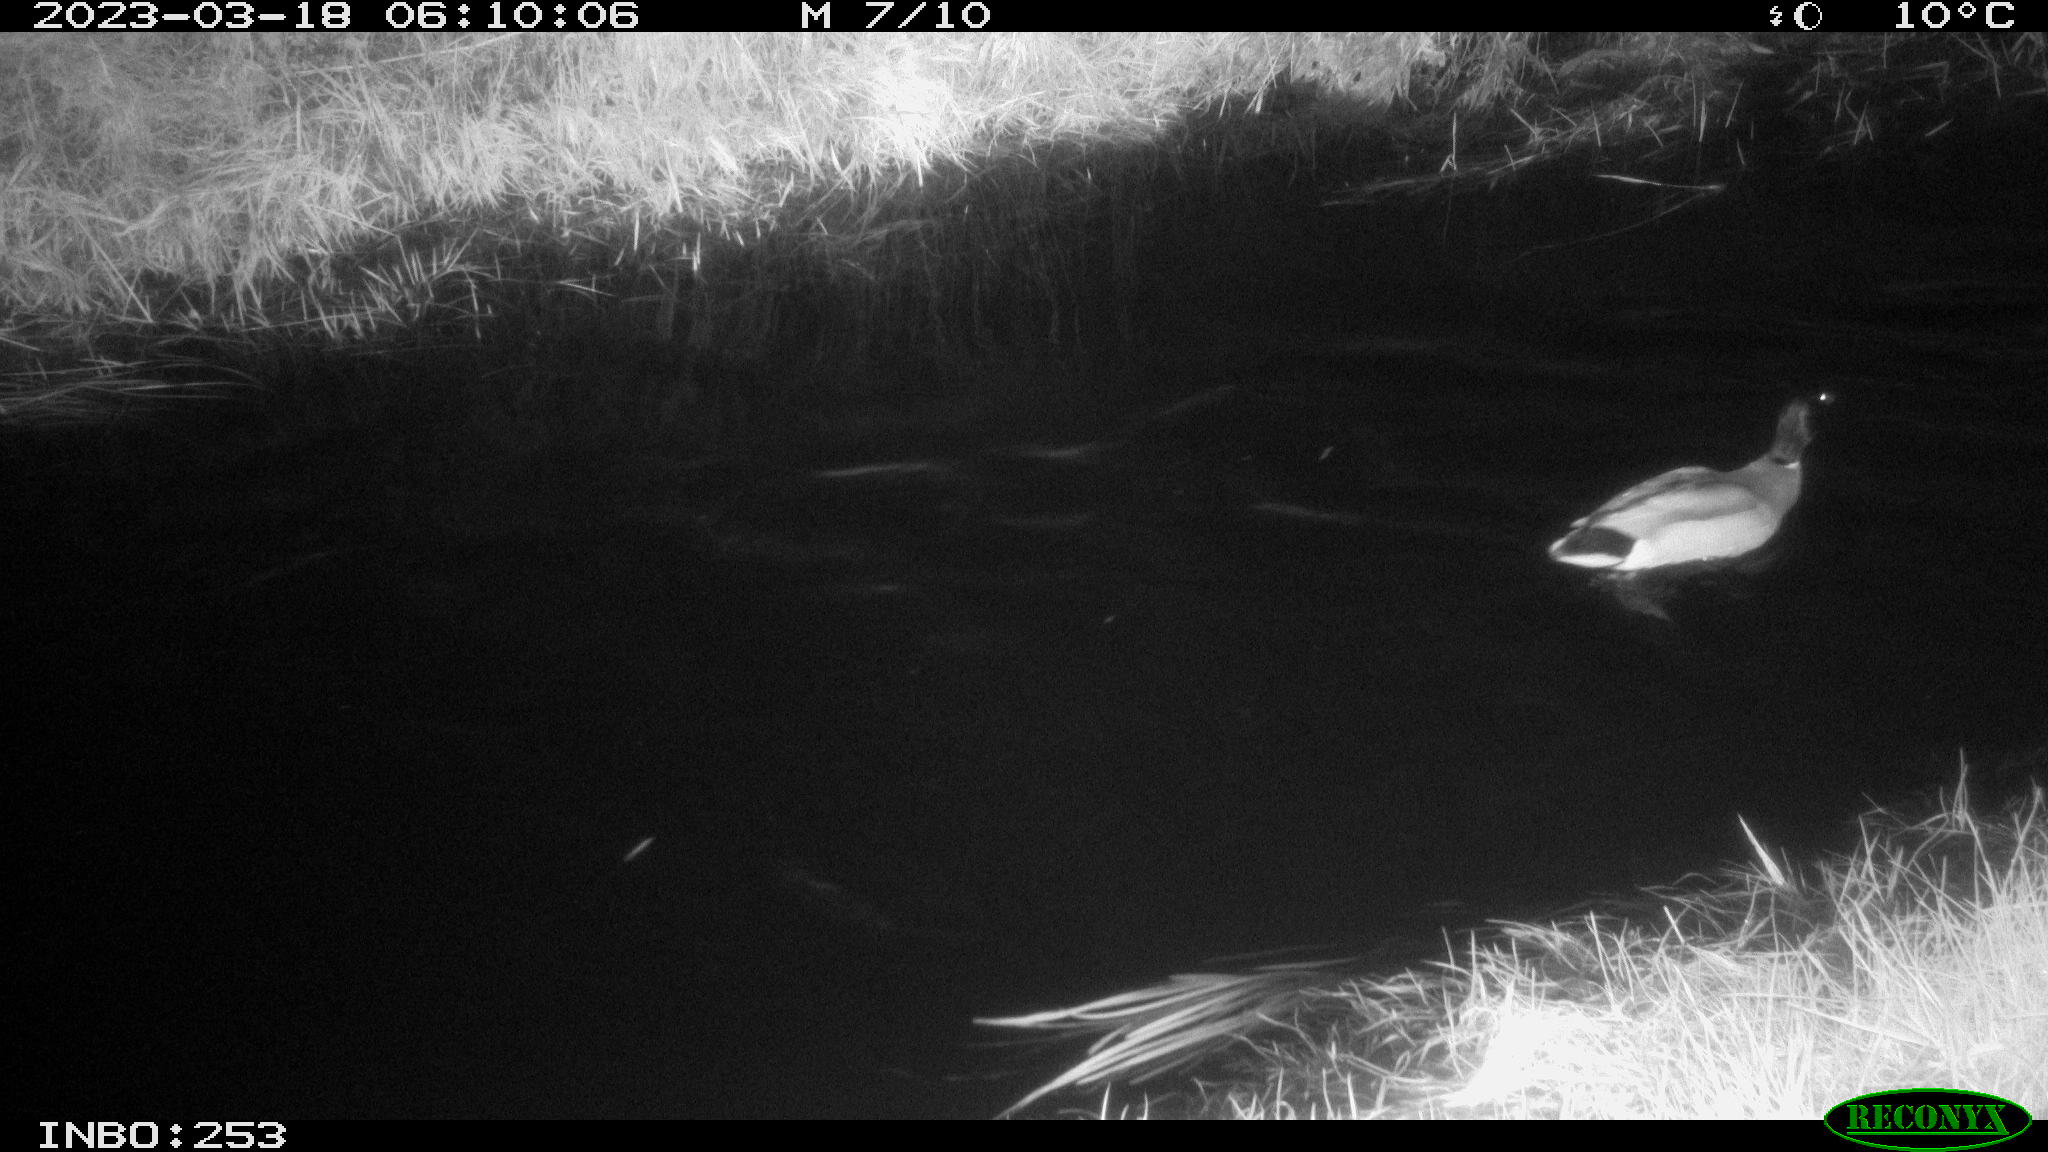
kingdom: Animalia
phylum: Chordata
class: Aves
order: Anseriformes
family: Anatidae
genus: Anas
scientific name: Anas
